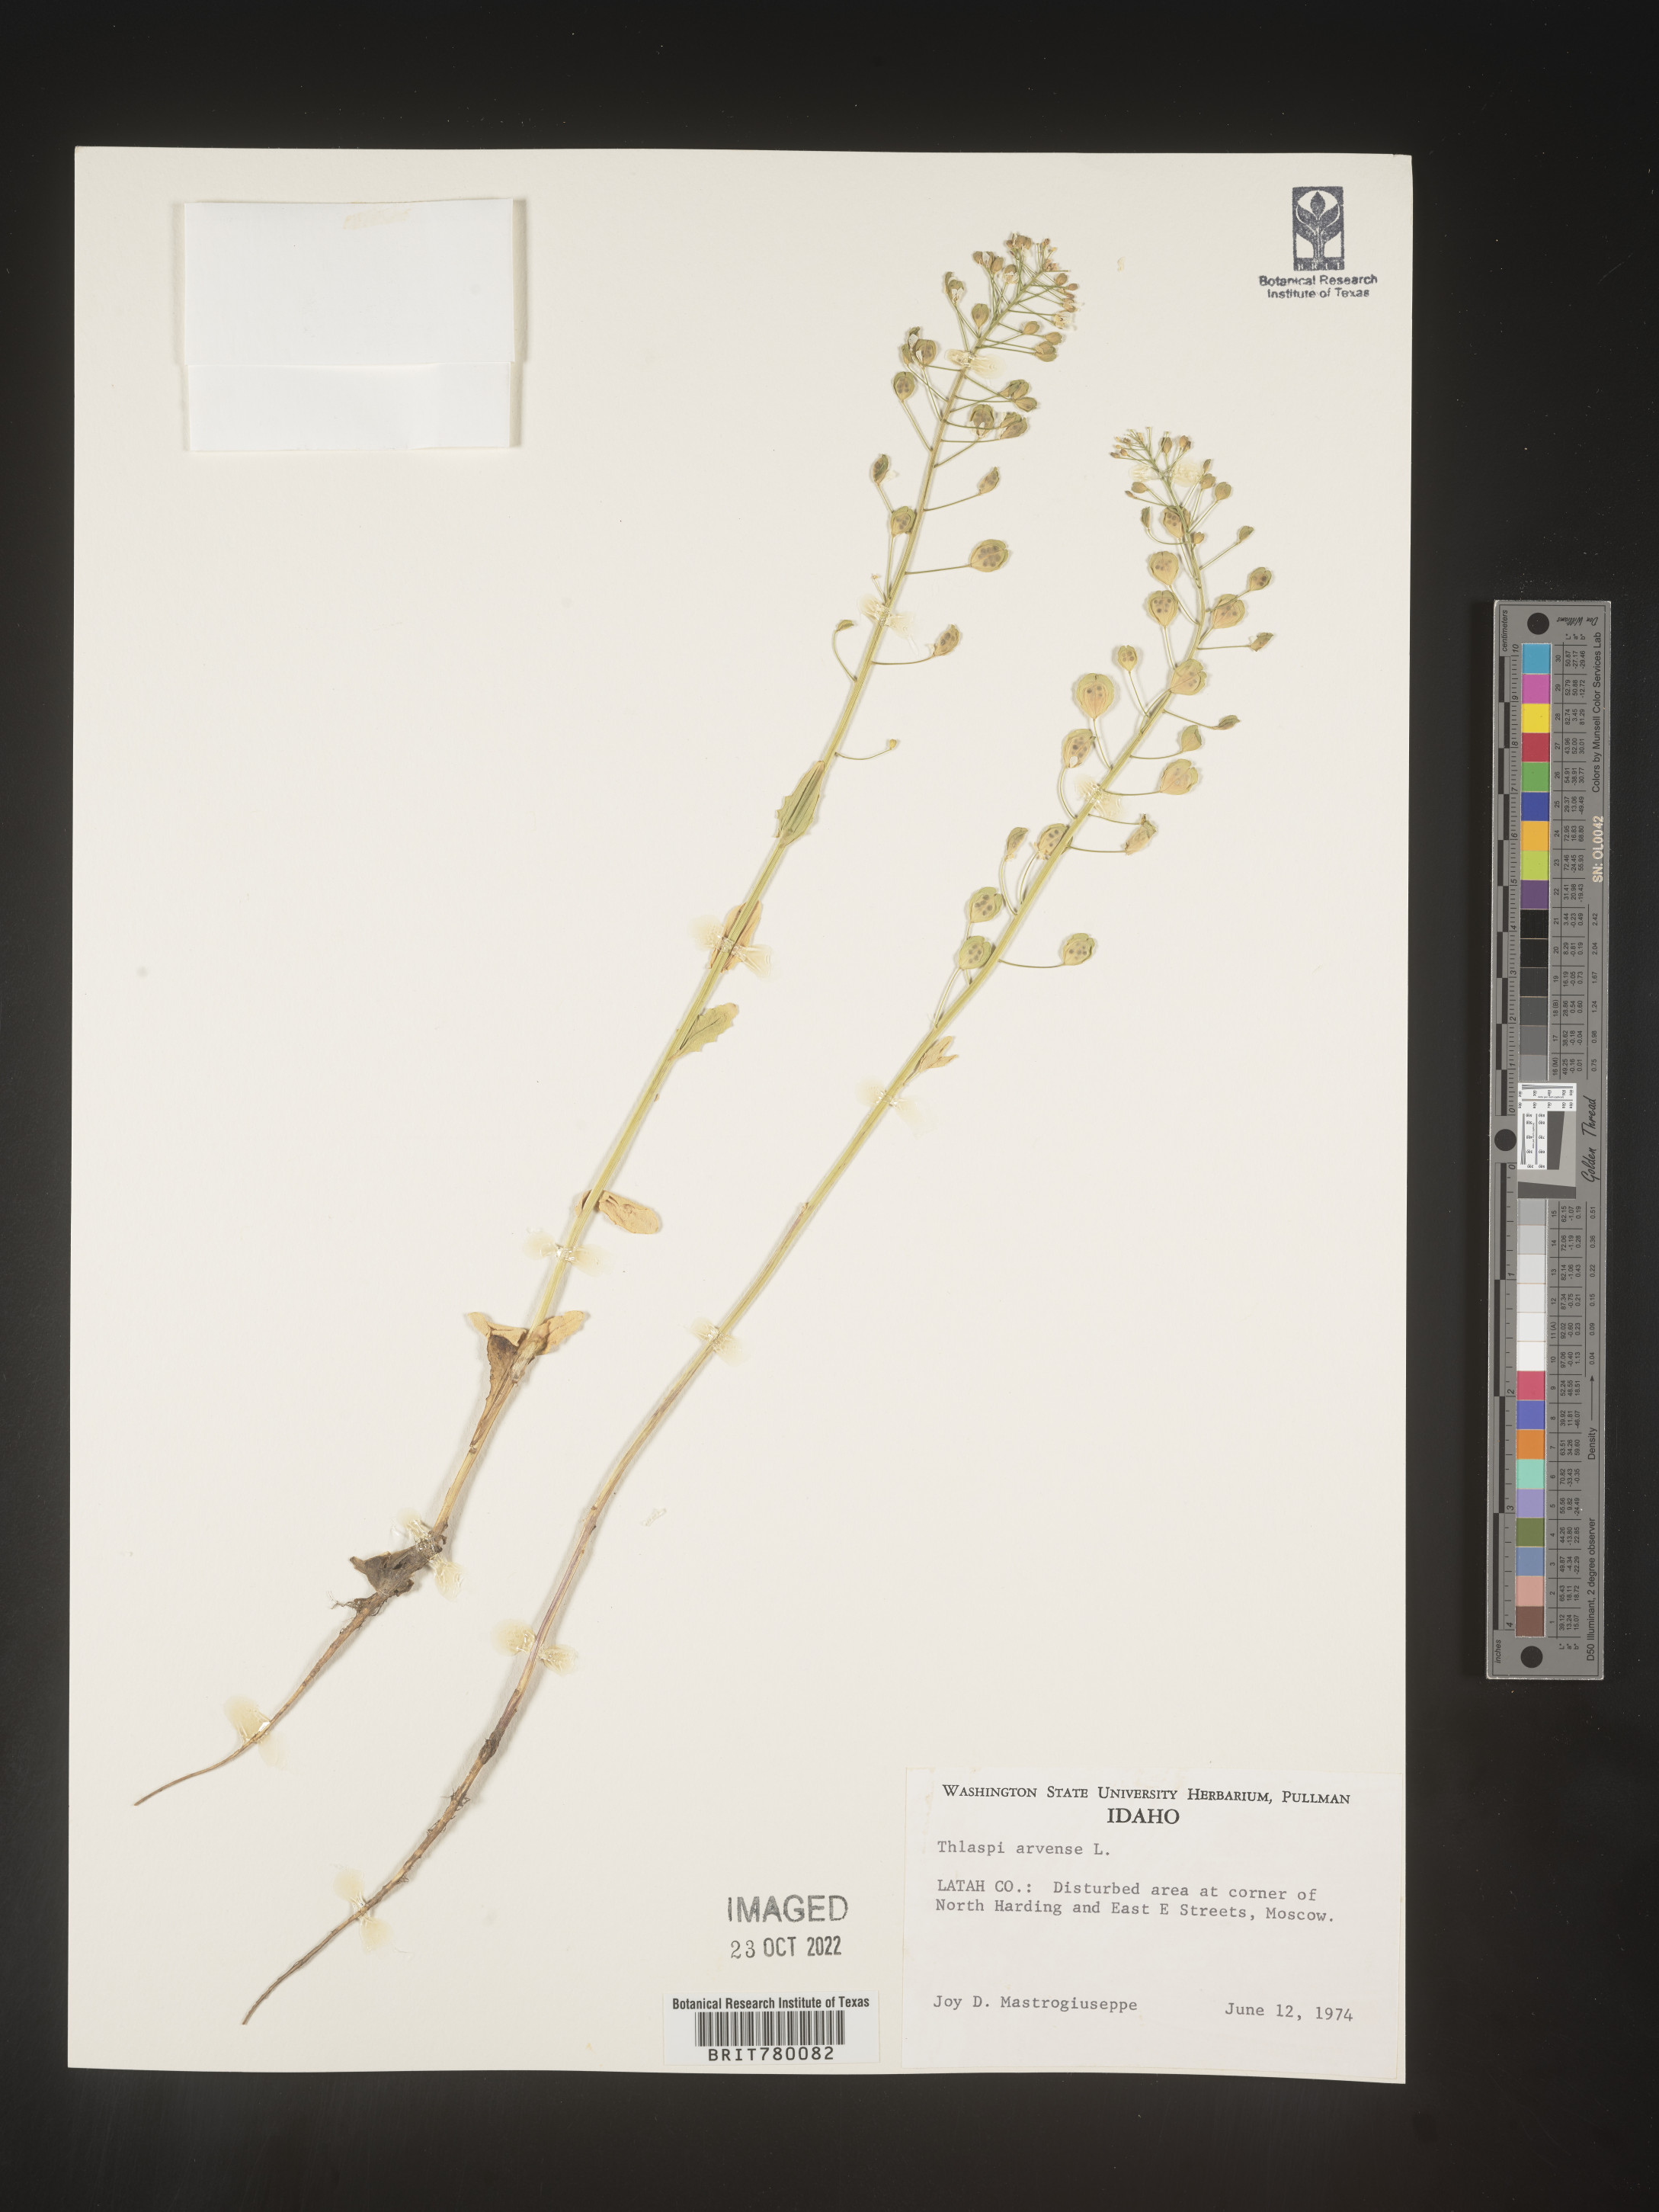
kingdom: Plantae
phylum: Tracheophyta
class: Magnoliopsida
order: Brassicales
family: Brassicaceae
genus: Thlaspi
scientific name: Thlaspi arvense
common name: Field pennycress
